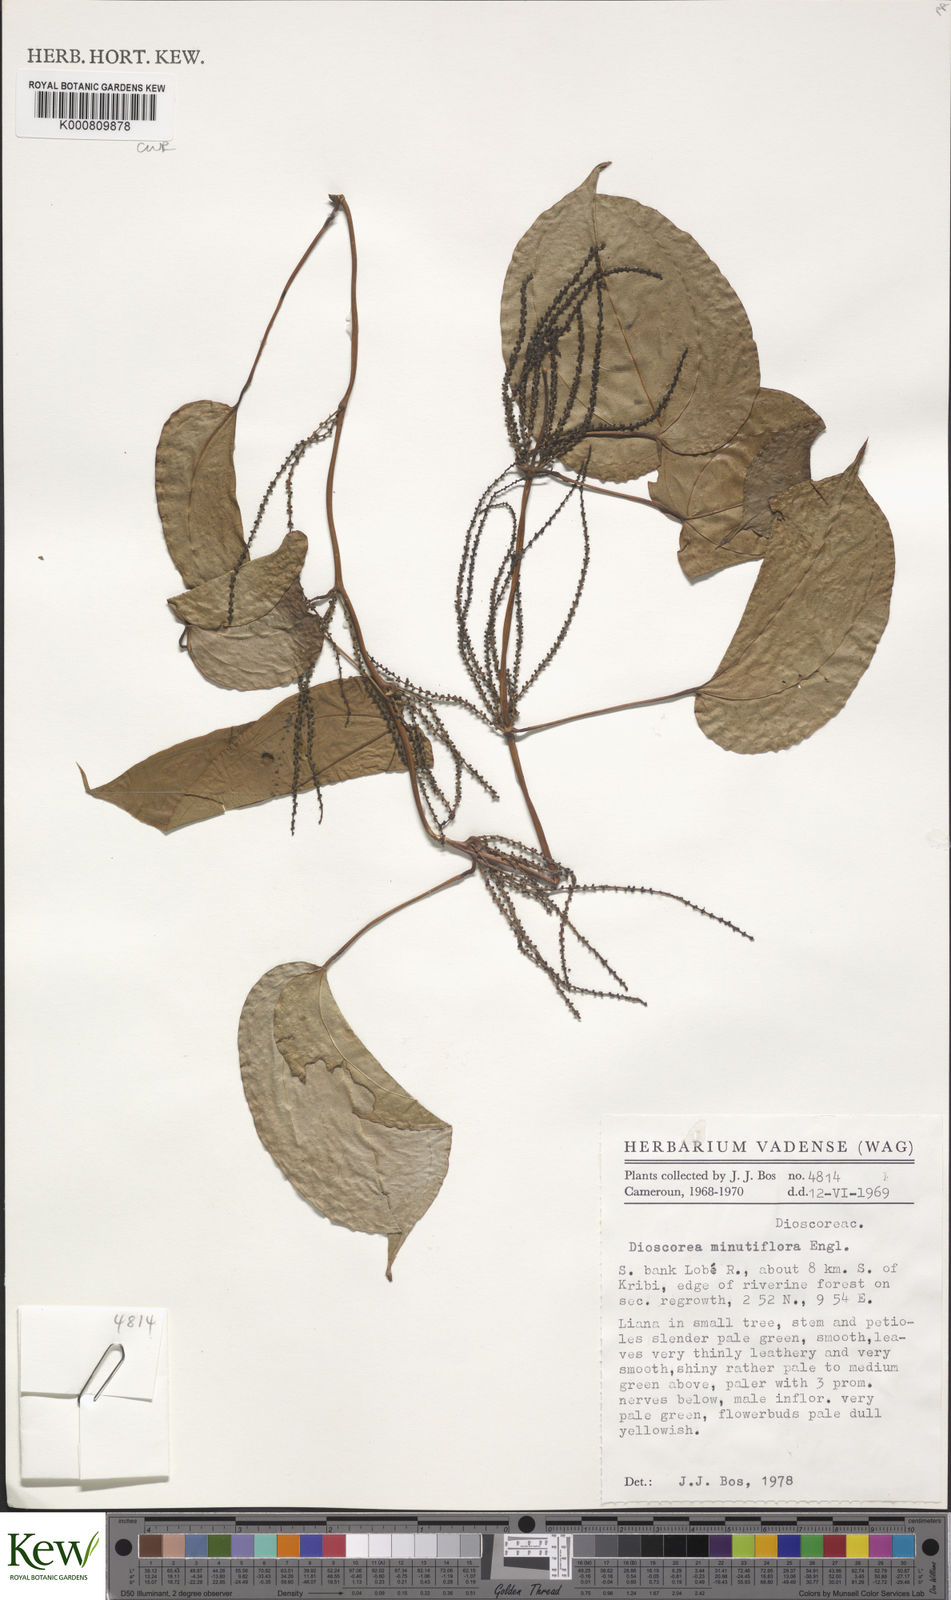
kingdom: Plantae
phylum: Tracheophyta
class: Liliopsida
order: Dioscoreales
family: Dioscoreaceae
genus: Dioscorea
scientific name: Dioscorea minutiflora
